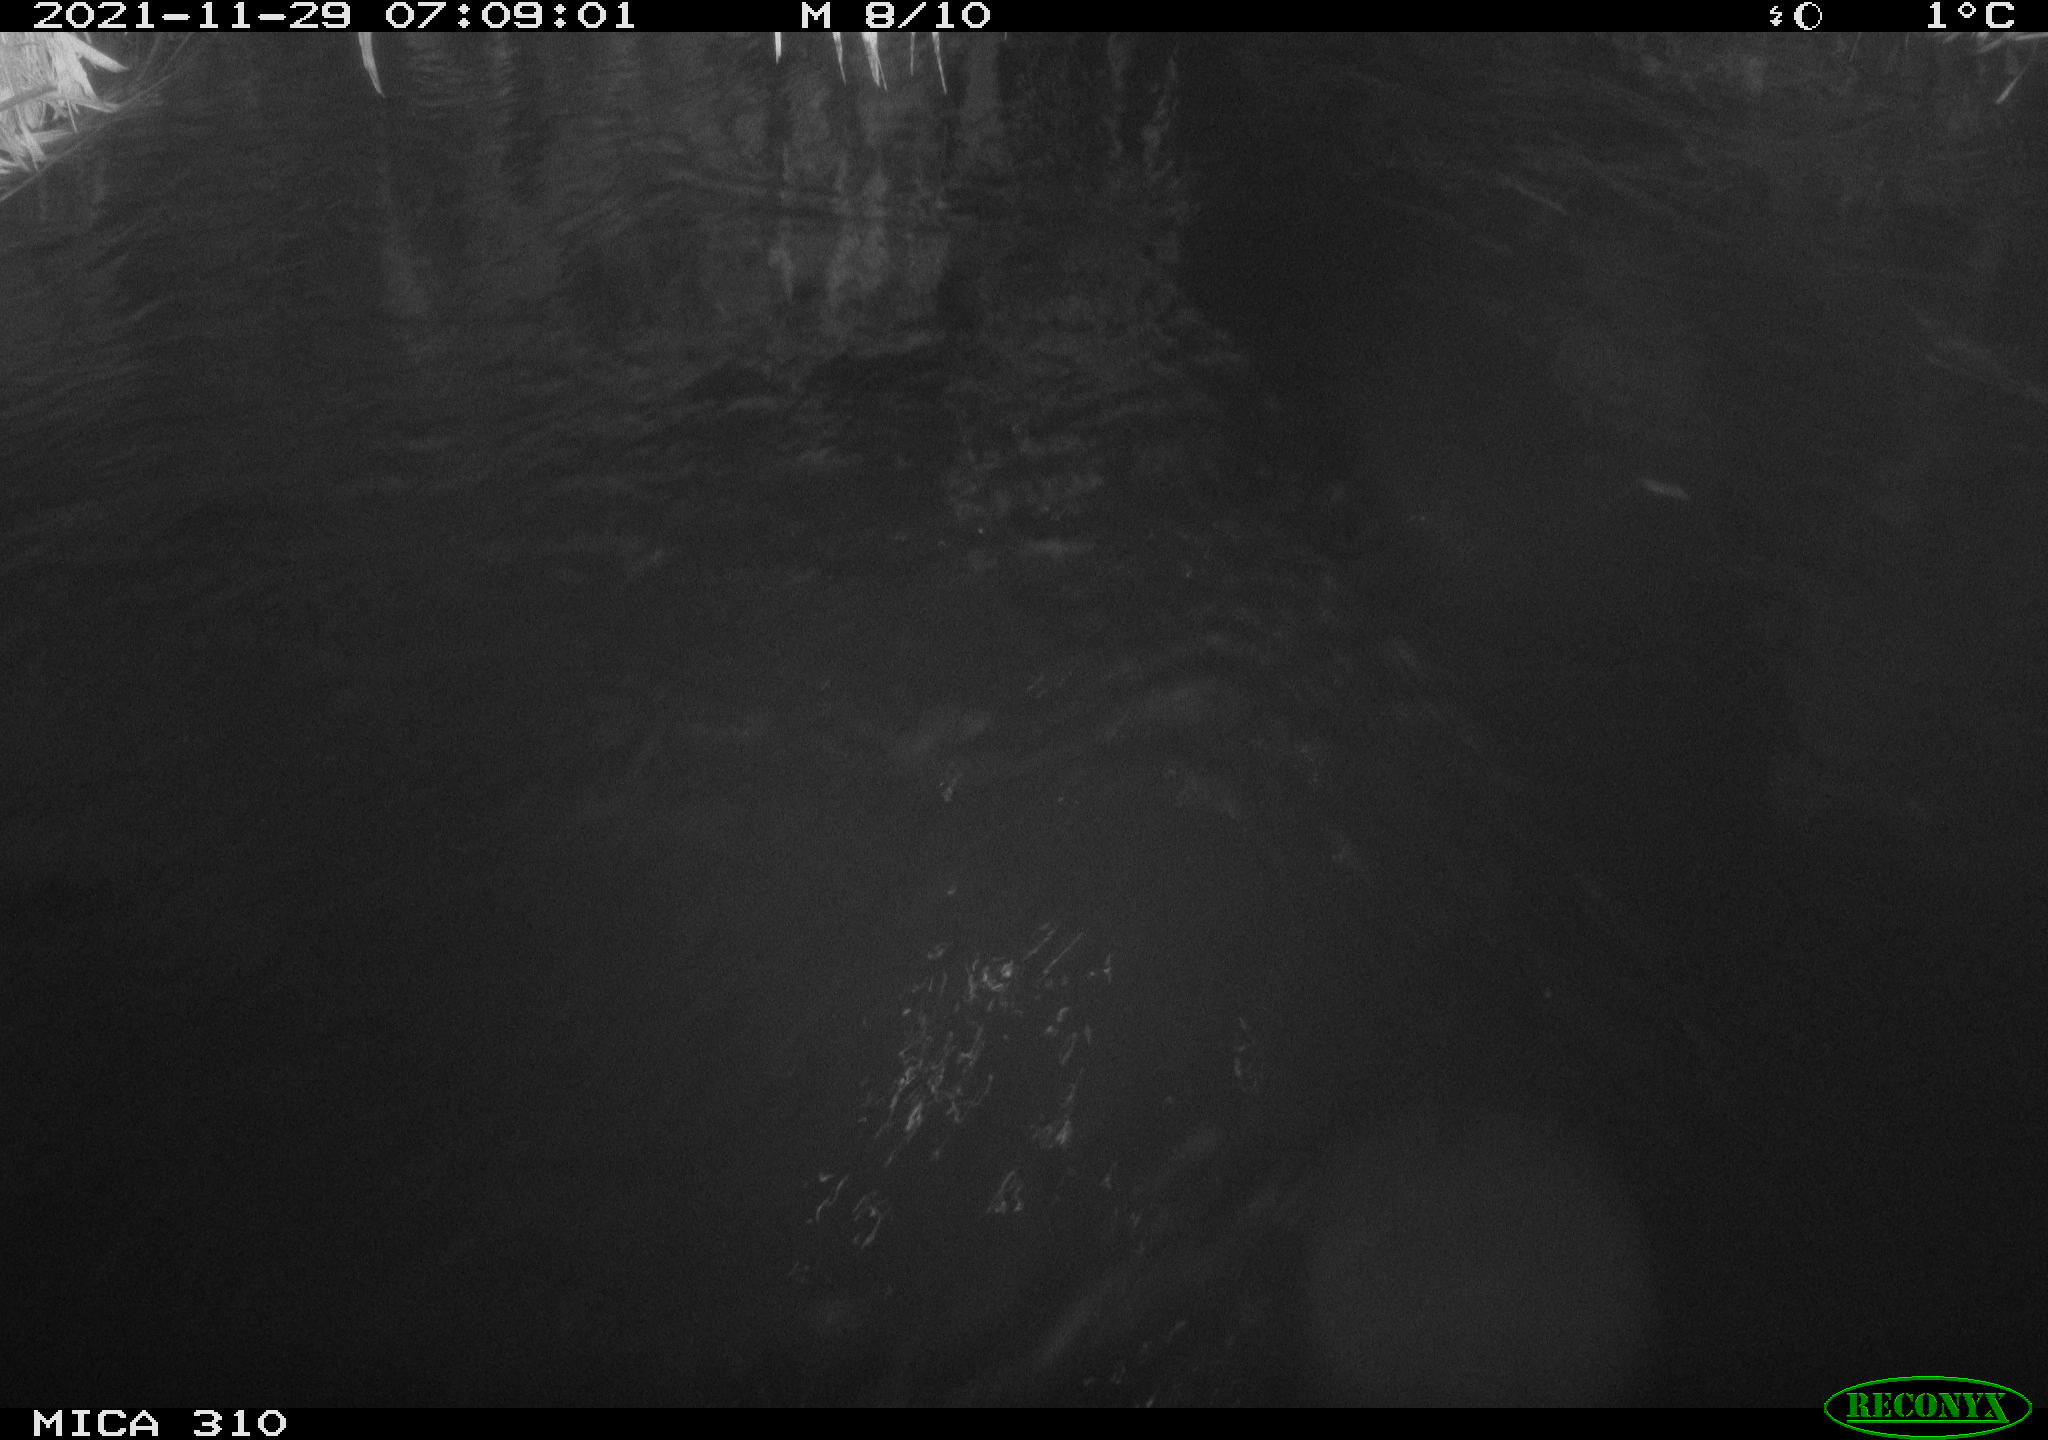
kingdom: Animalia
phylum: Chordata
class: Mammalia
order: Rodentia
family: Cricetidae
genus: Ondatra
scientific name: Ondatra zibethicus
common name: Muskrat
